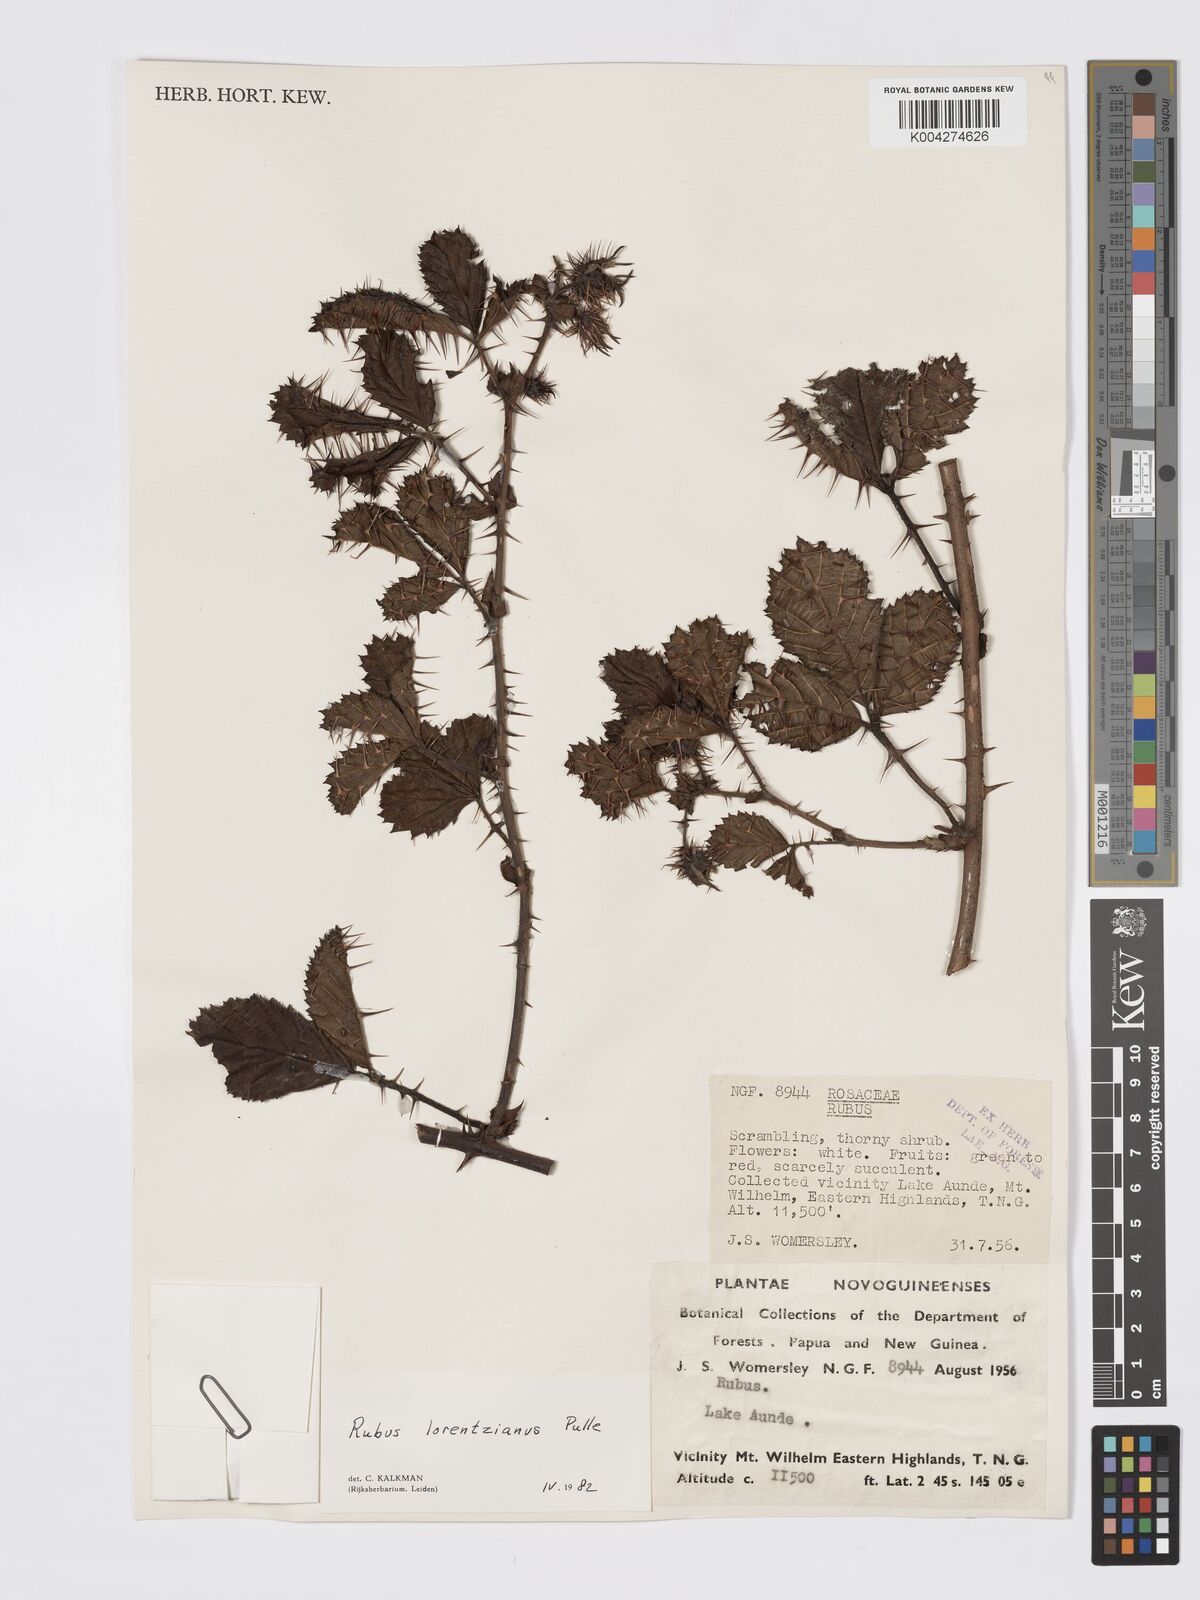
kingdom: Plantae
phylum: Tracheophyta
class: Magnoliopsida
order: Rosales
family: Rosaceae
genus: Rubus
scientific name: Rubus lorentzianus
